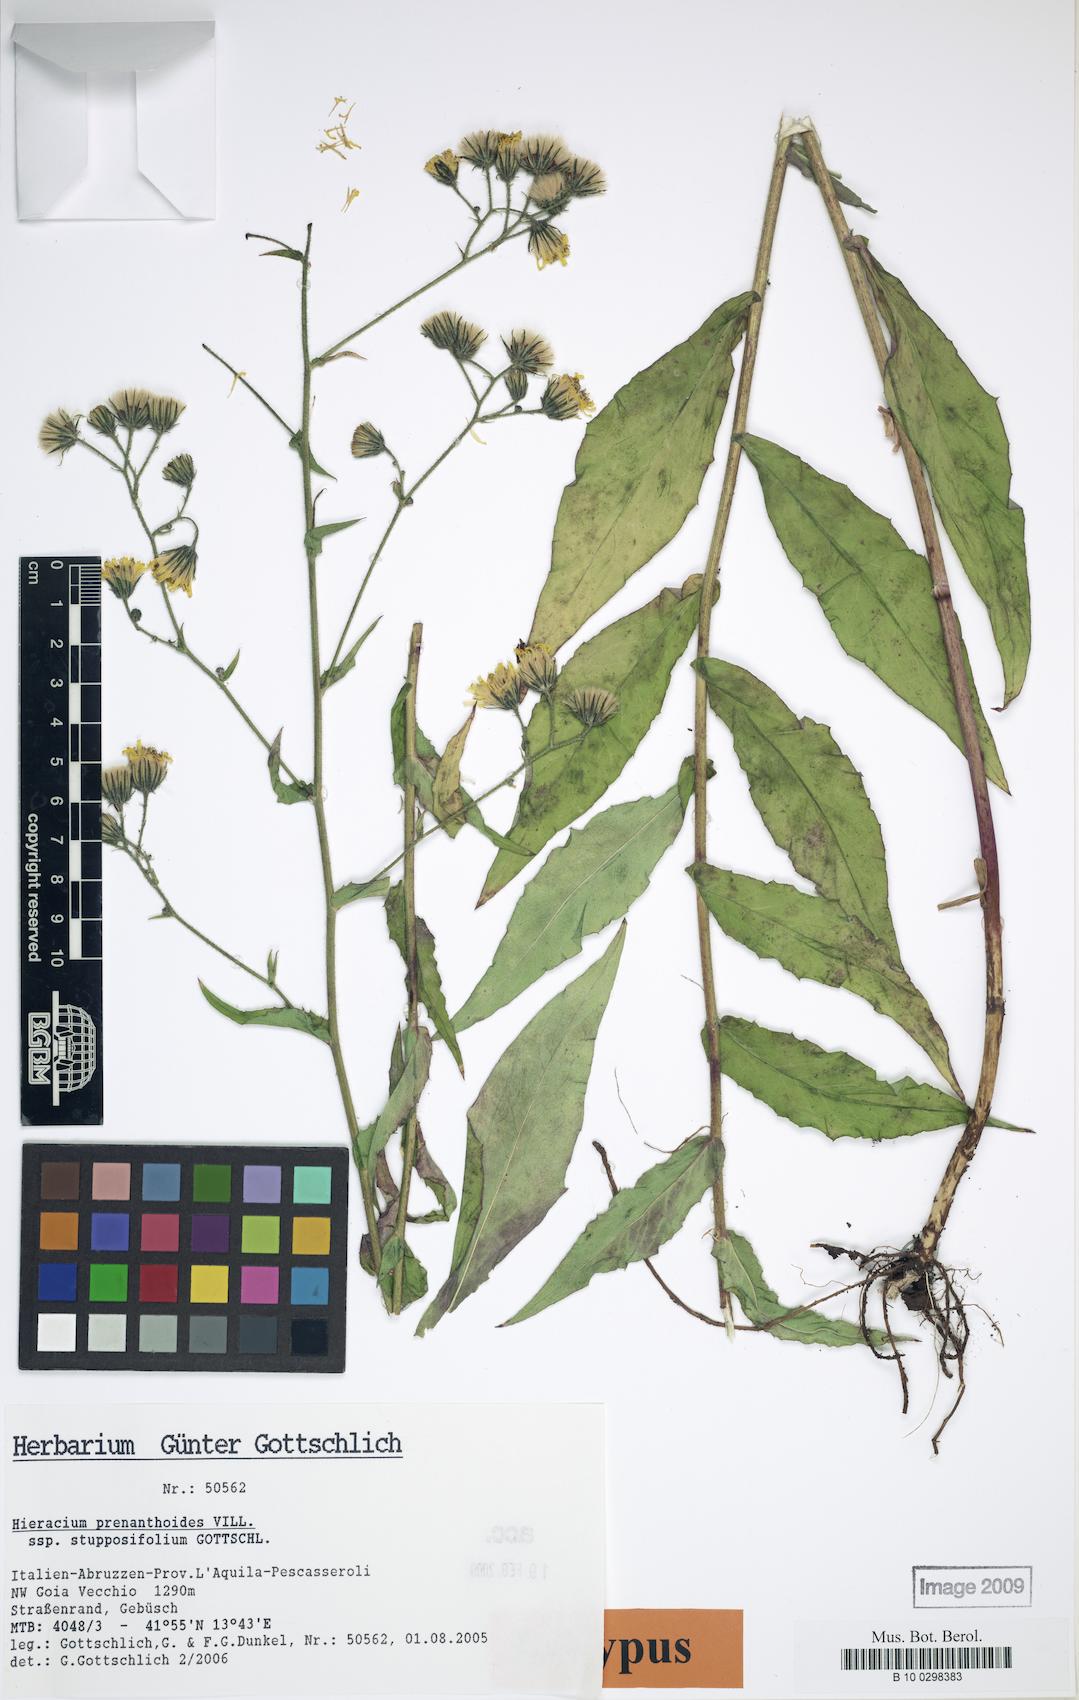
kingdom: Plantae
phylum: Tracheophyta
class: Magnoliopsida
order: Asterales
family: Asteraceae
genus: Hieracium
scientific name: Hieracium prenanthoides
